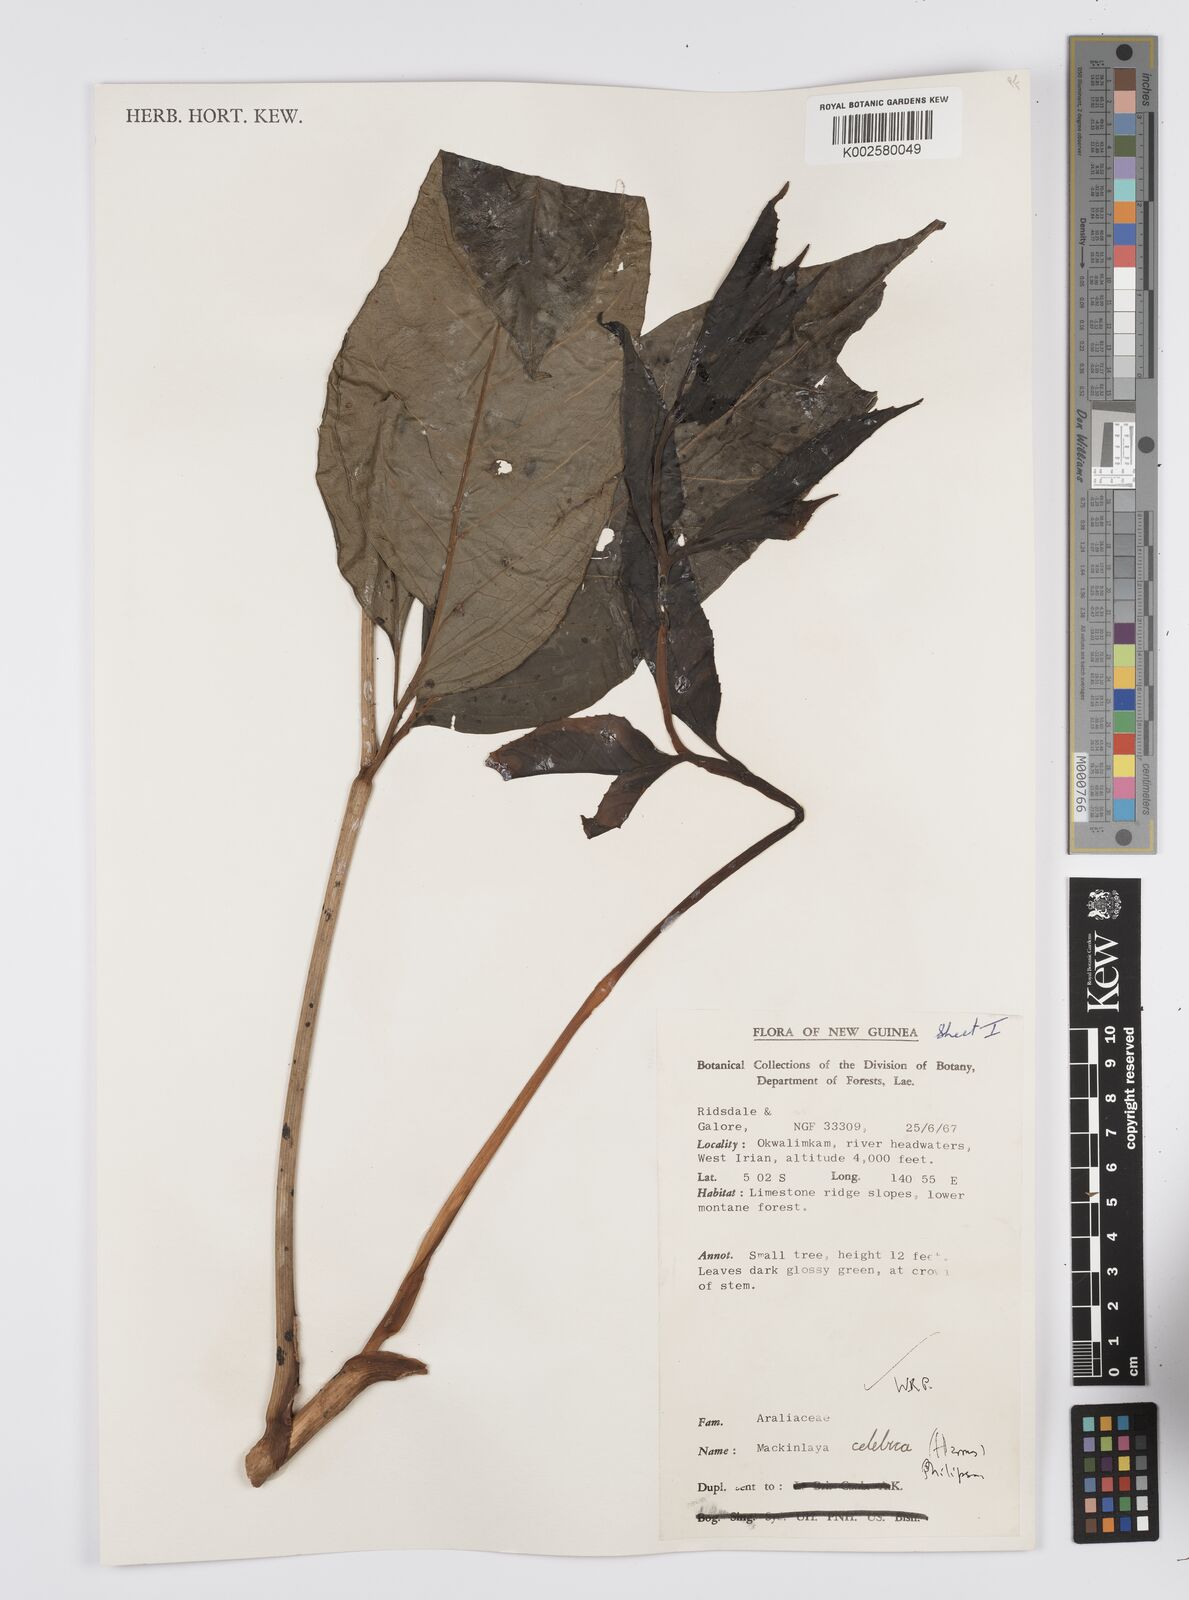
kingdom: Plantae
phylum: Tracheophyta
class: Magnoliopsida
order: Apiales
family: Apiaceae
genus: Mackinlaya
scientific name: Mackinlaya celebica
